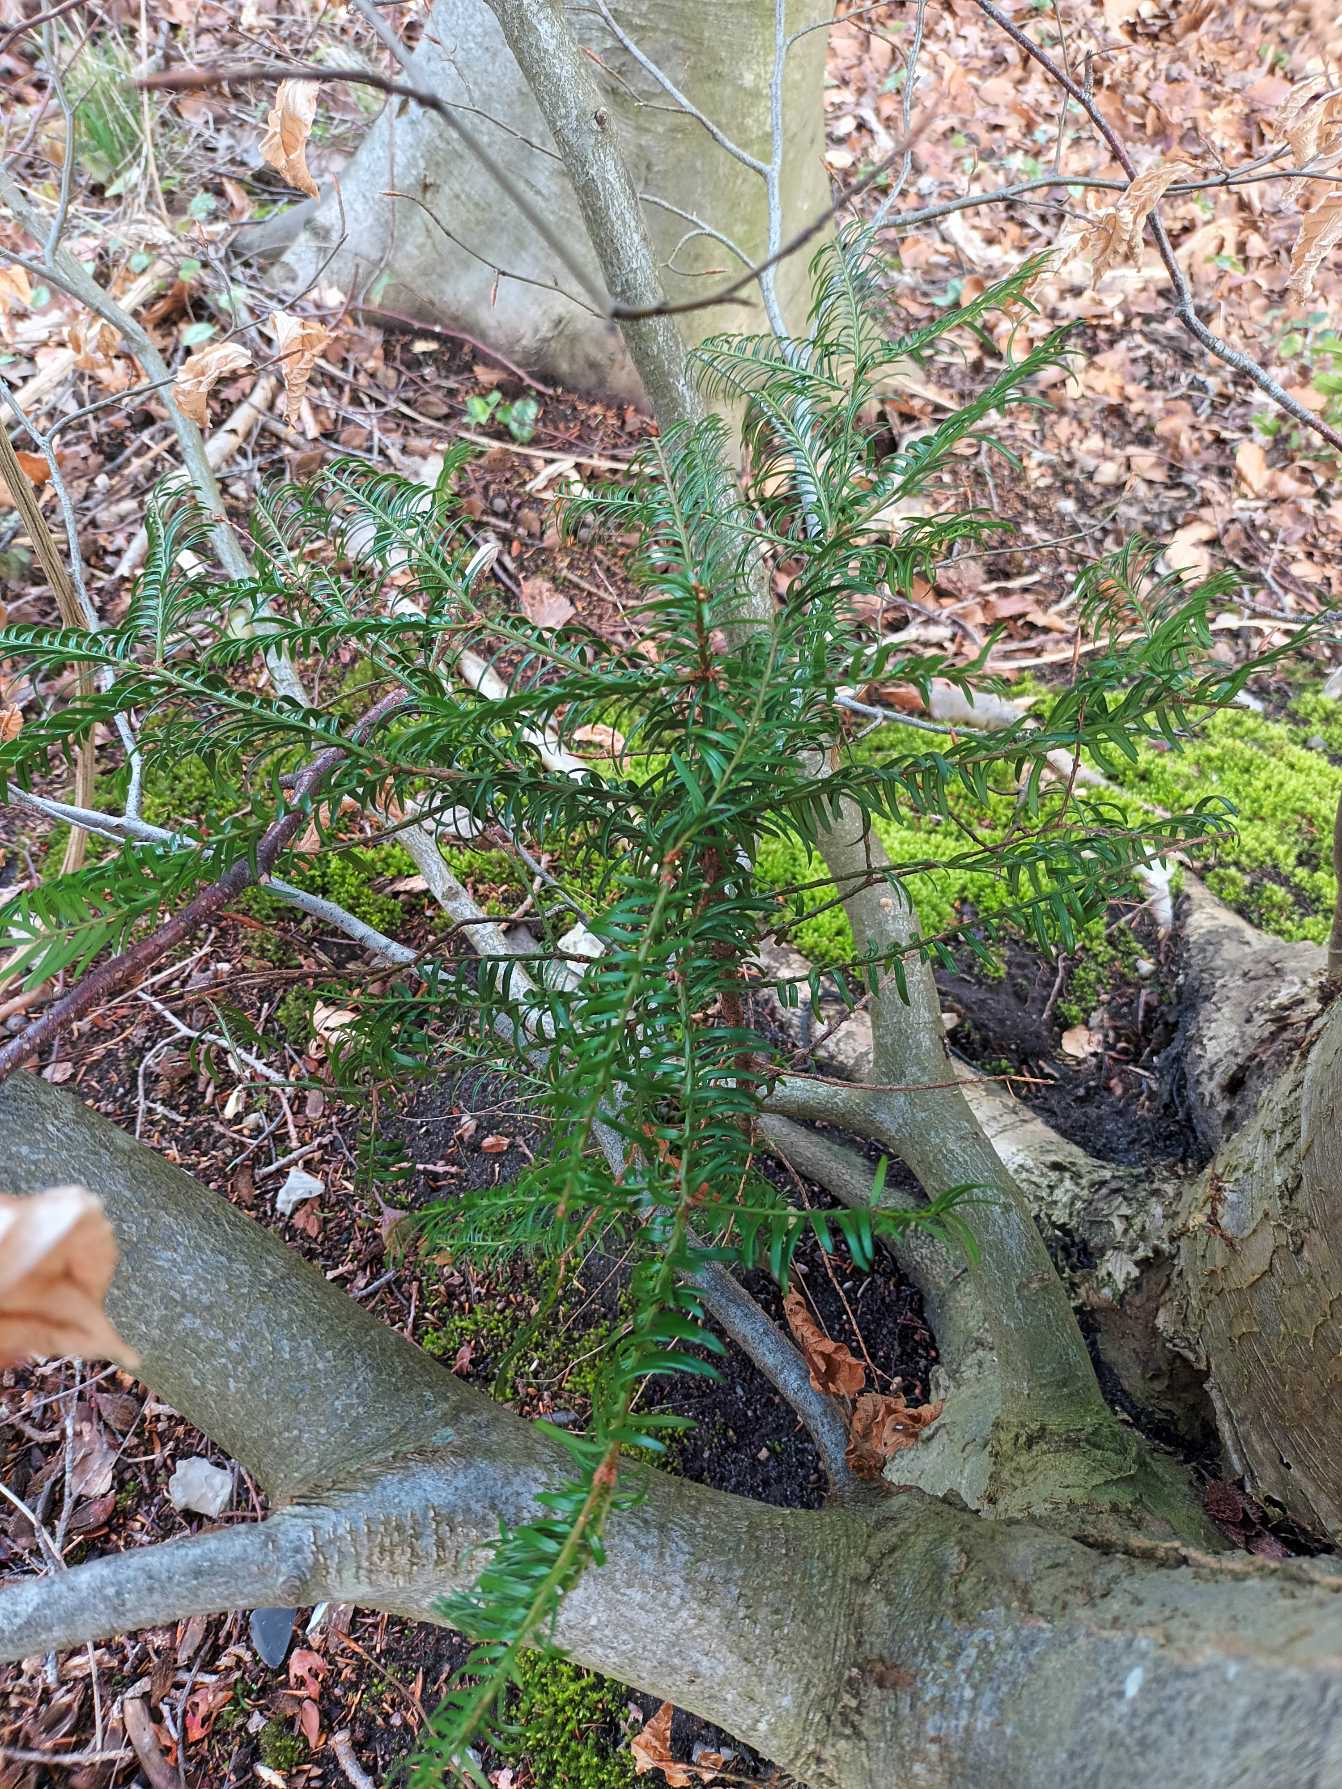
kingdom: Plantae
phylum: Tracheophyta
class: Pinopsida
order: Pinales
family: Taxaceae
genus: Taxus
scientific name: Taxus baccata
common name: Almindelig taks
